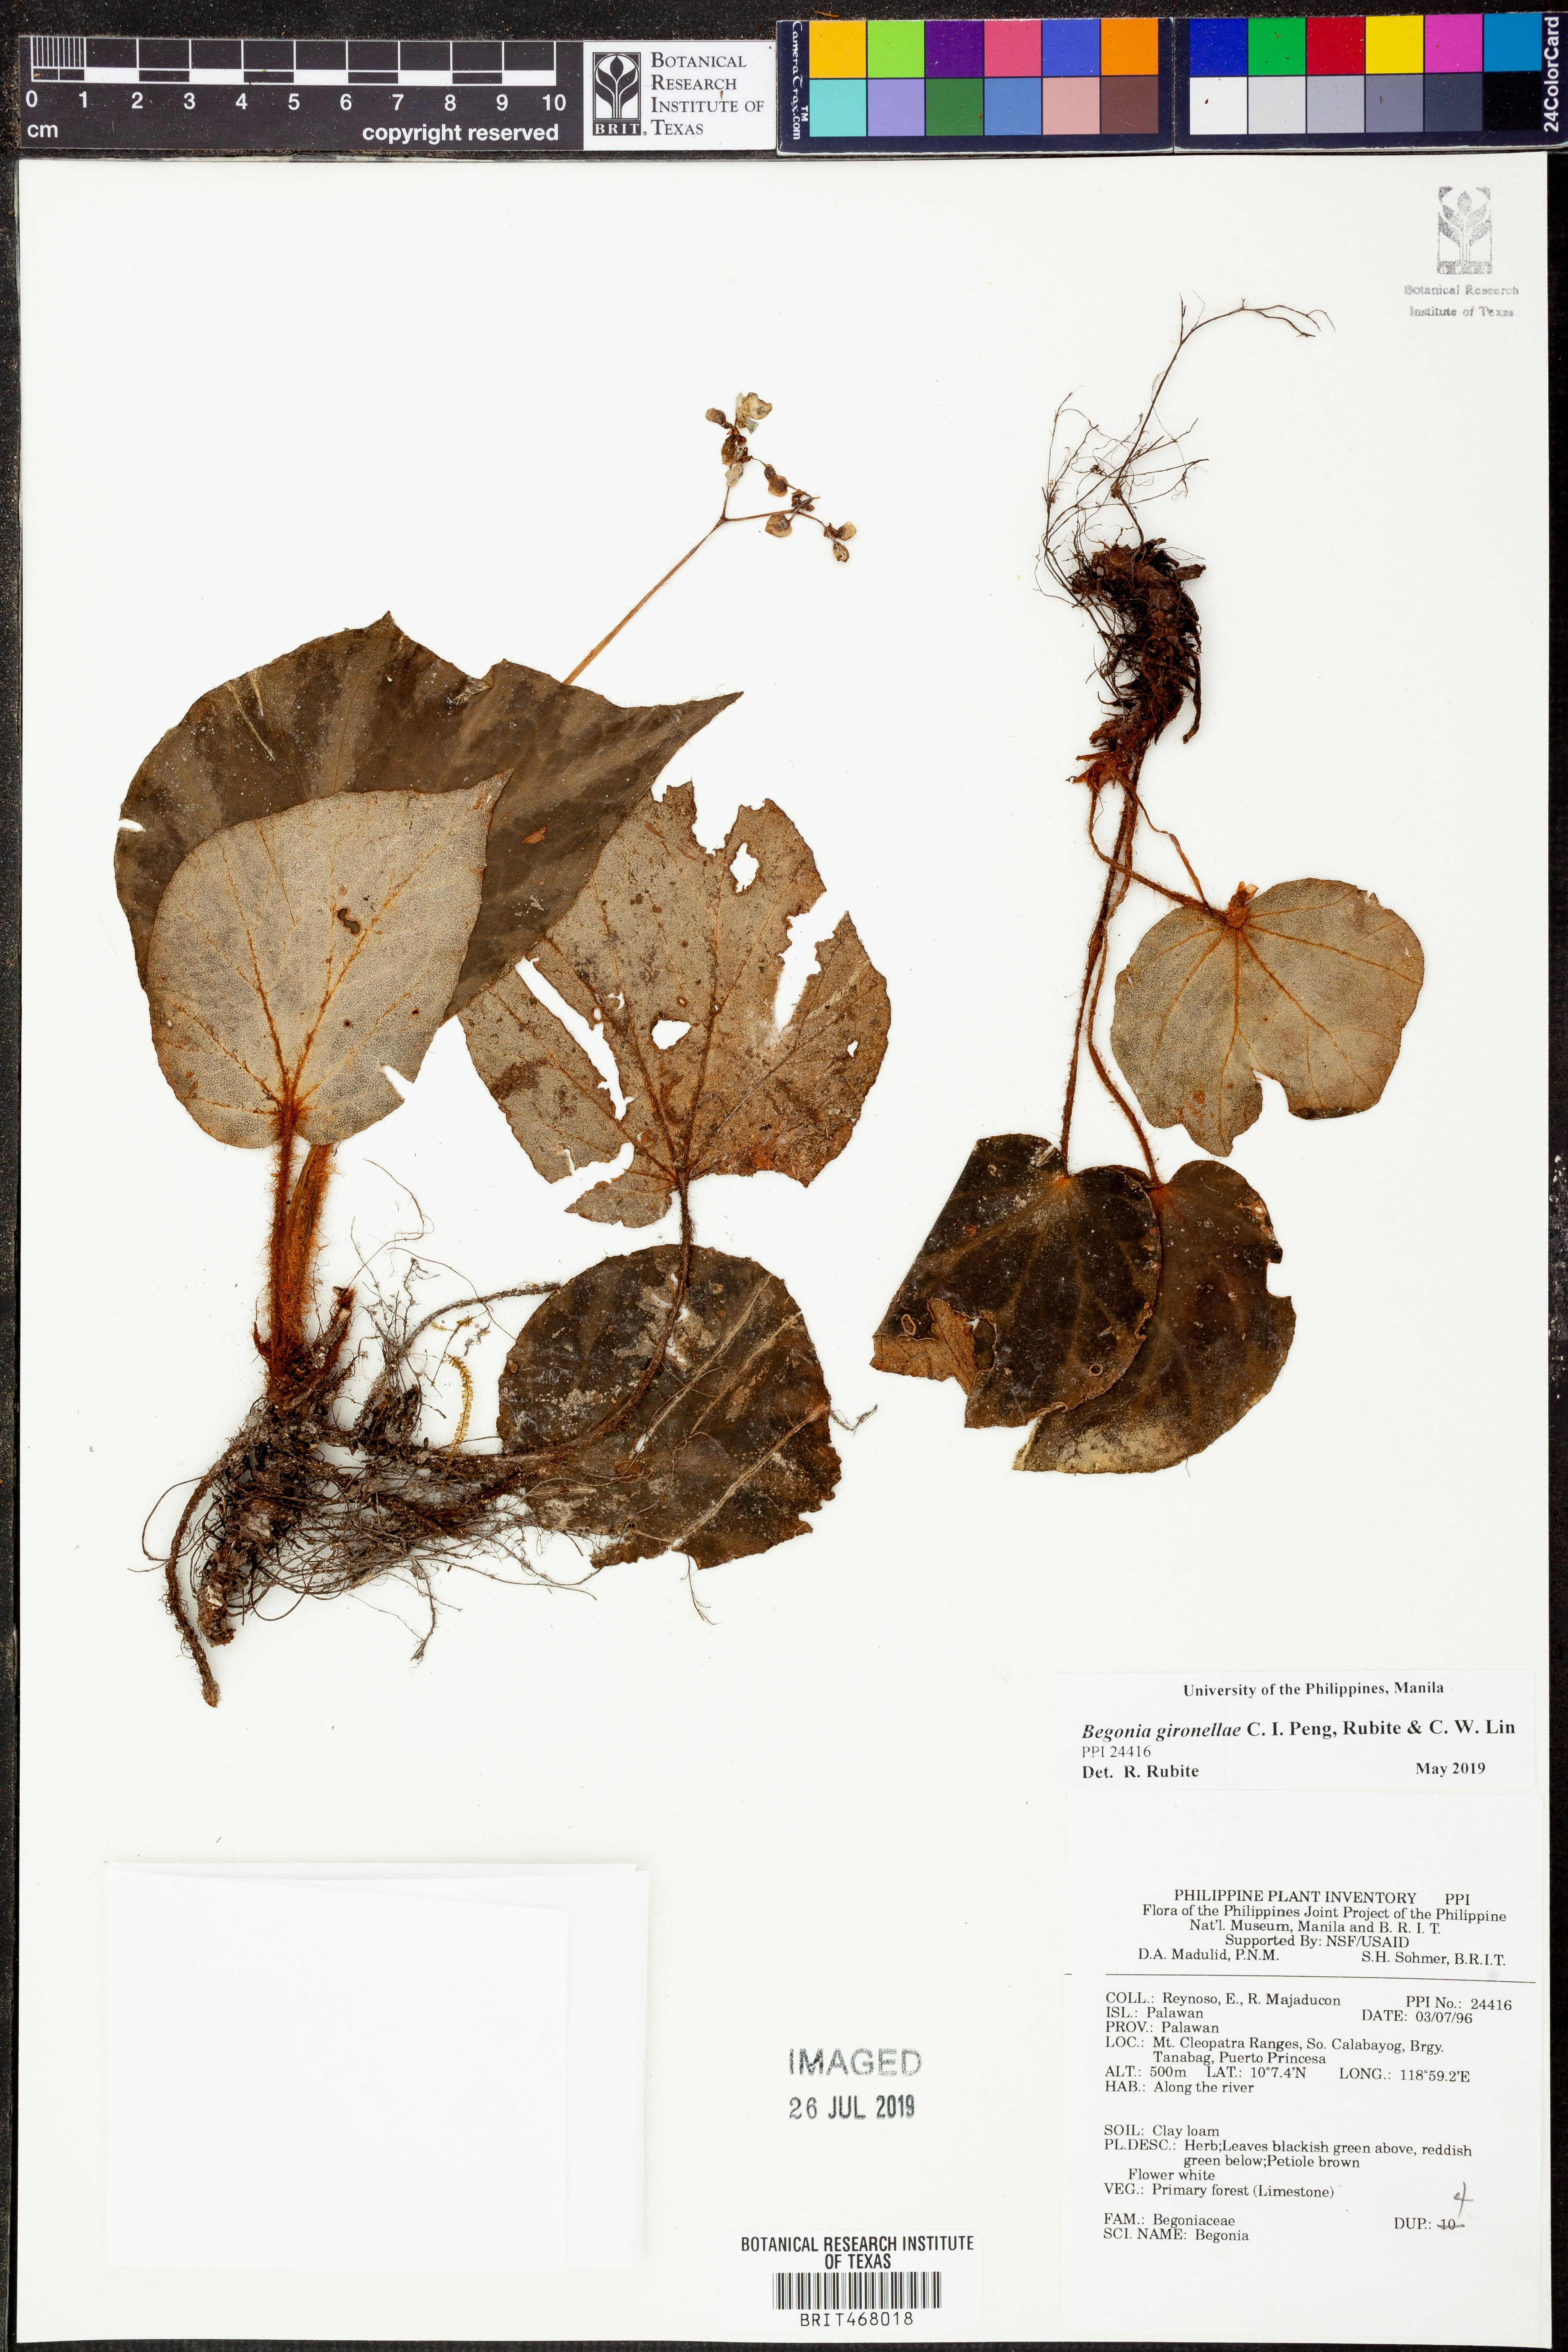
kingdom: Plantae
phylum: Tracheophyta
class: Magnoliopsida
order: Cucurbitales
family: Begoniaceae
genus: Begonia
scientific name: Begonia gironellae
